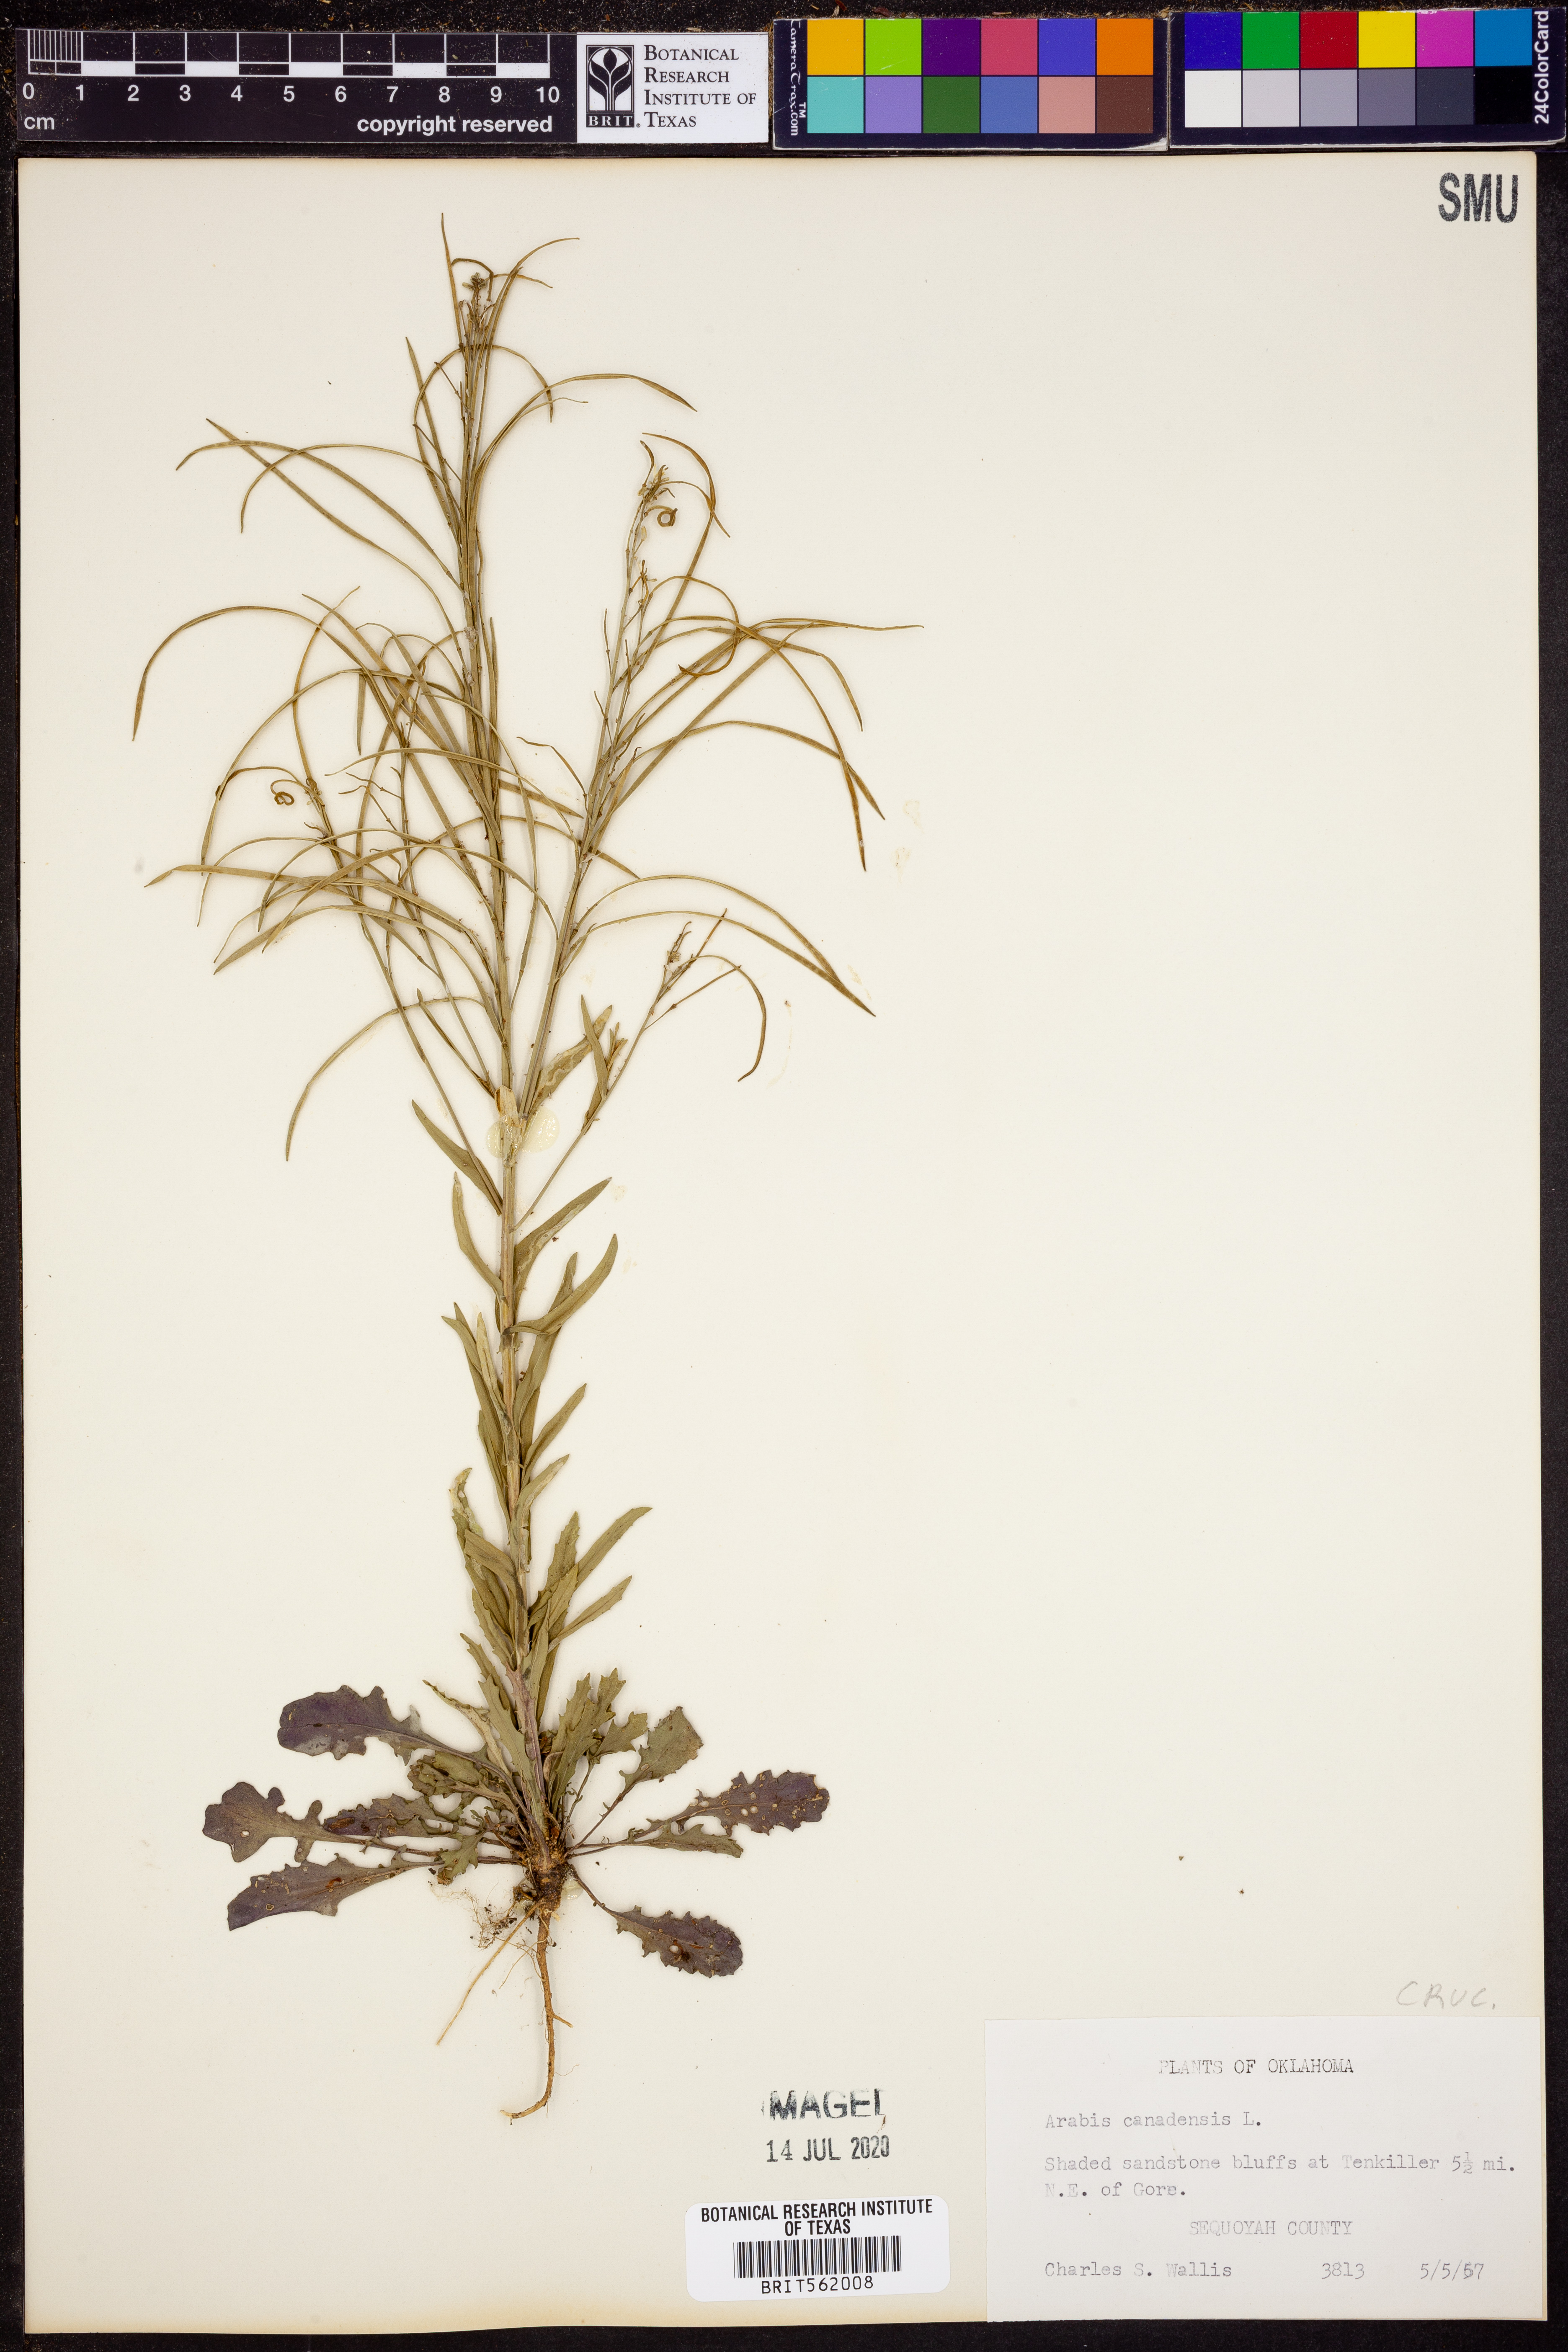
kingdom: Plantae
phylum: Tracheophyta
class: Magnoliopsida
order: Brassicales
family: Brassicaceae
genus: Borodinia
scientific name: Borodinia canadensis
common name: Sicklepod
